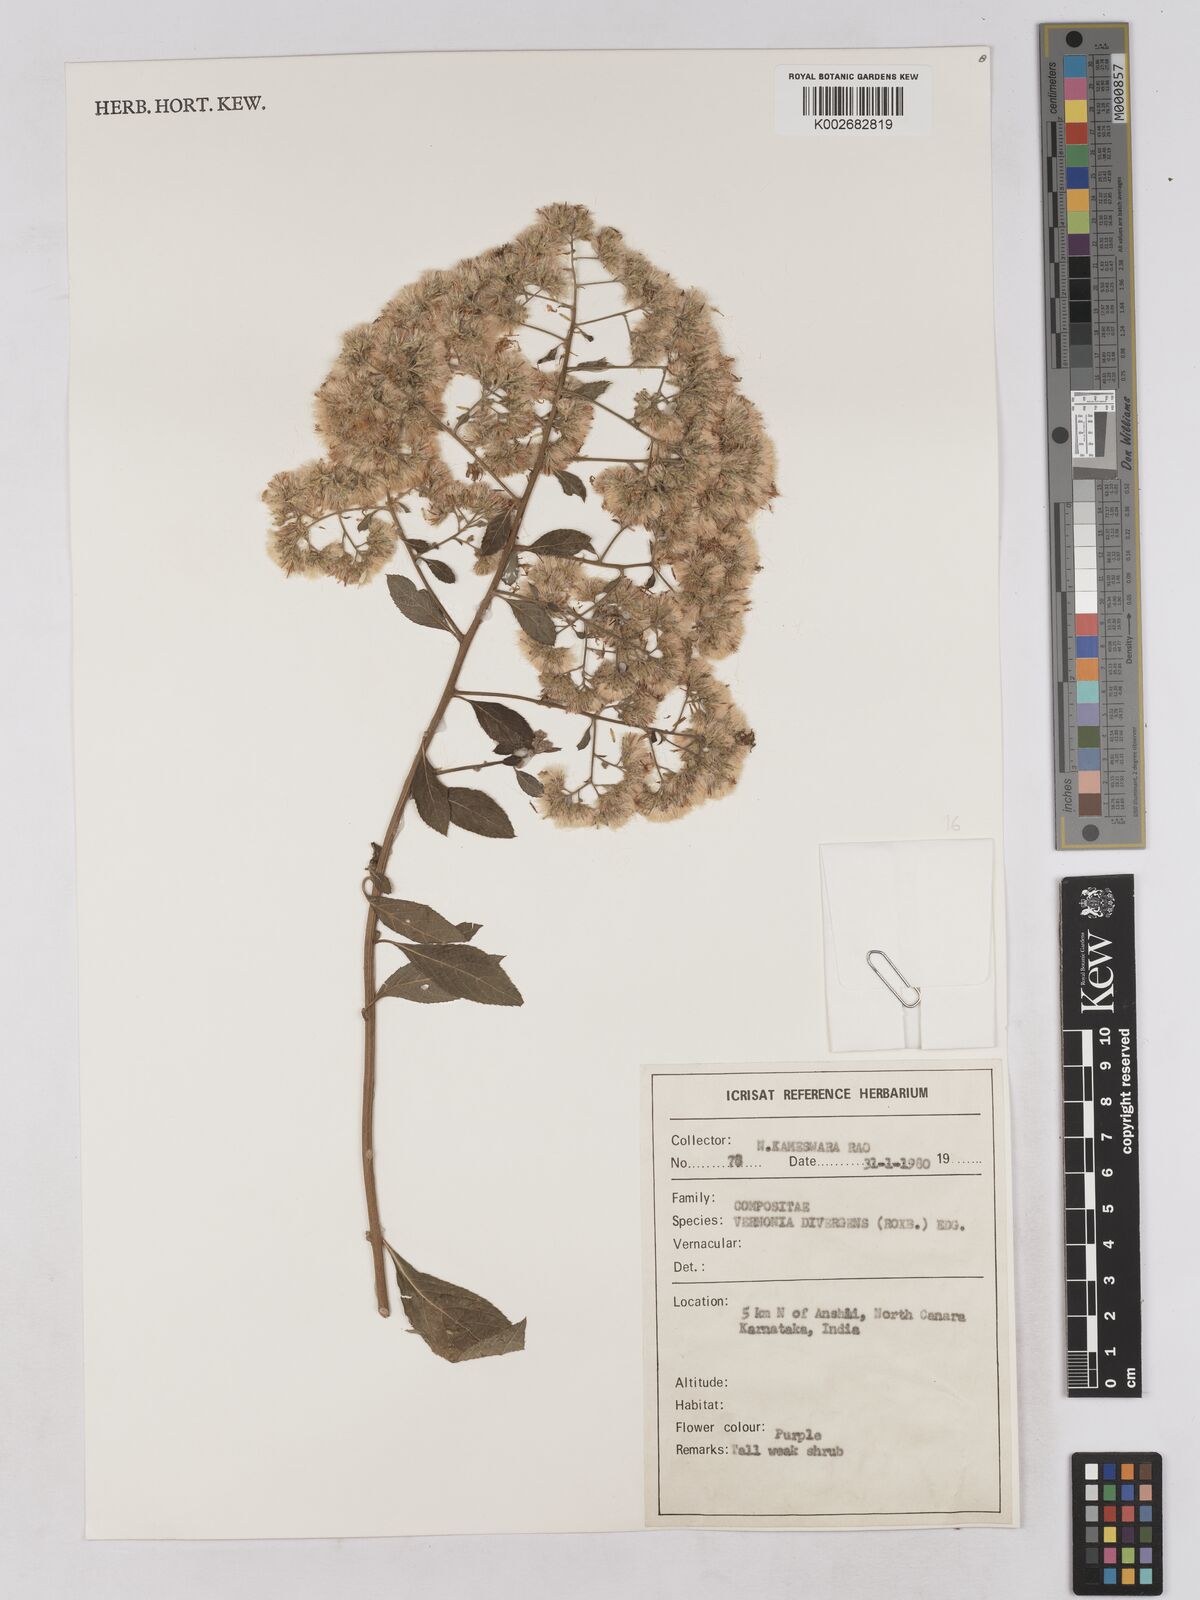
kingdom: Plantae
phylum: Tracheophyta
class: Magnoliopsida
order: Asterales
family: Asteraceae
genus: Acilepis
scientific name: Acilepis divergens
